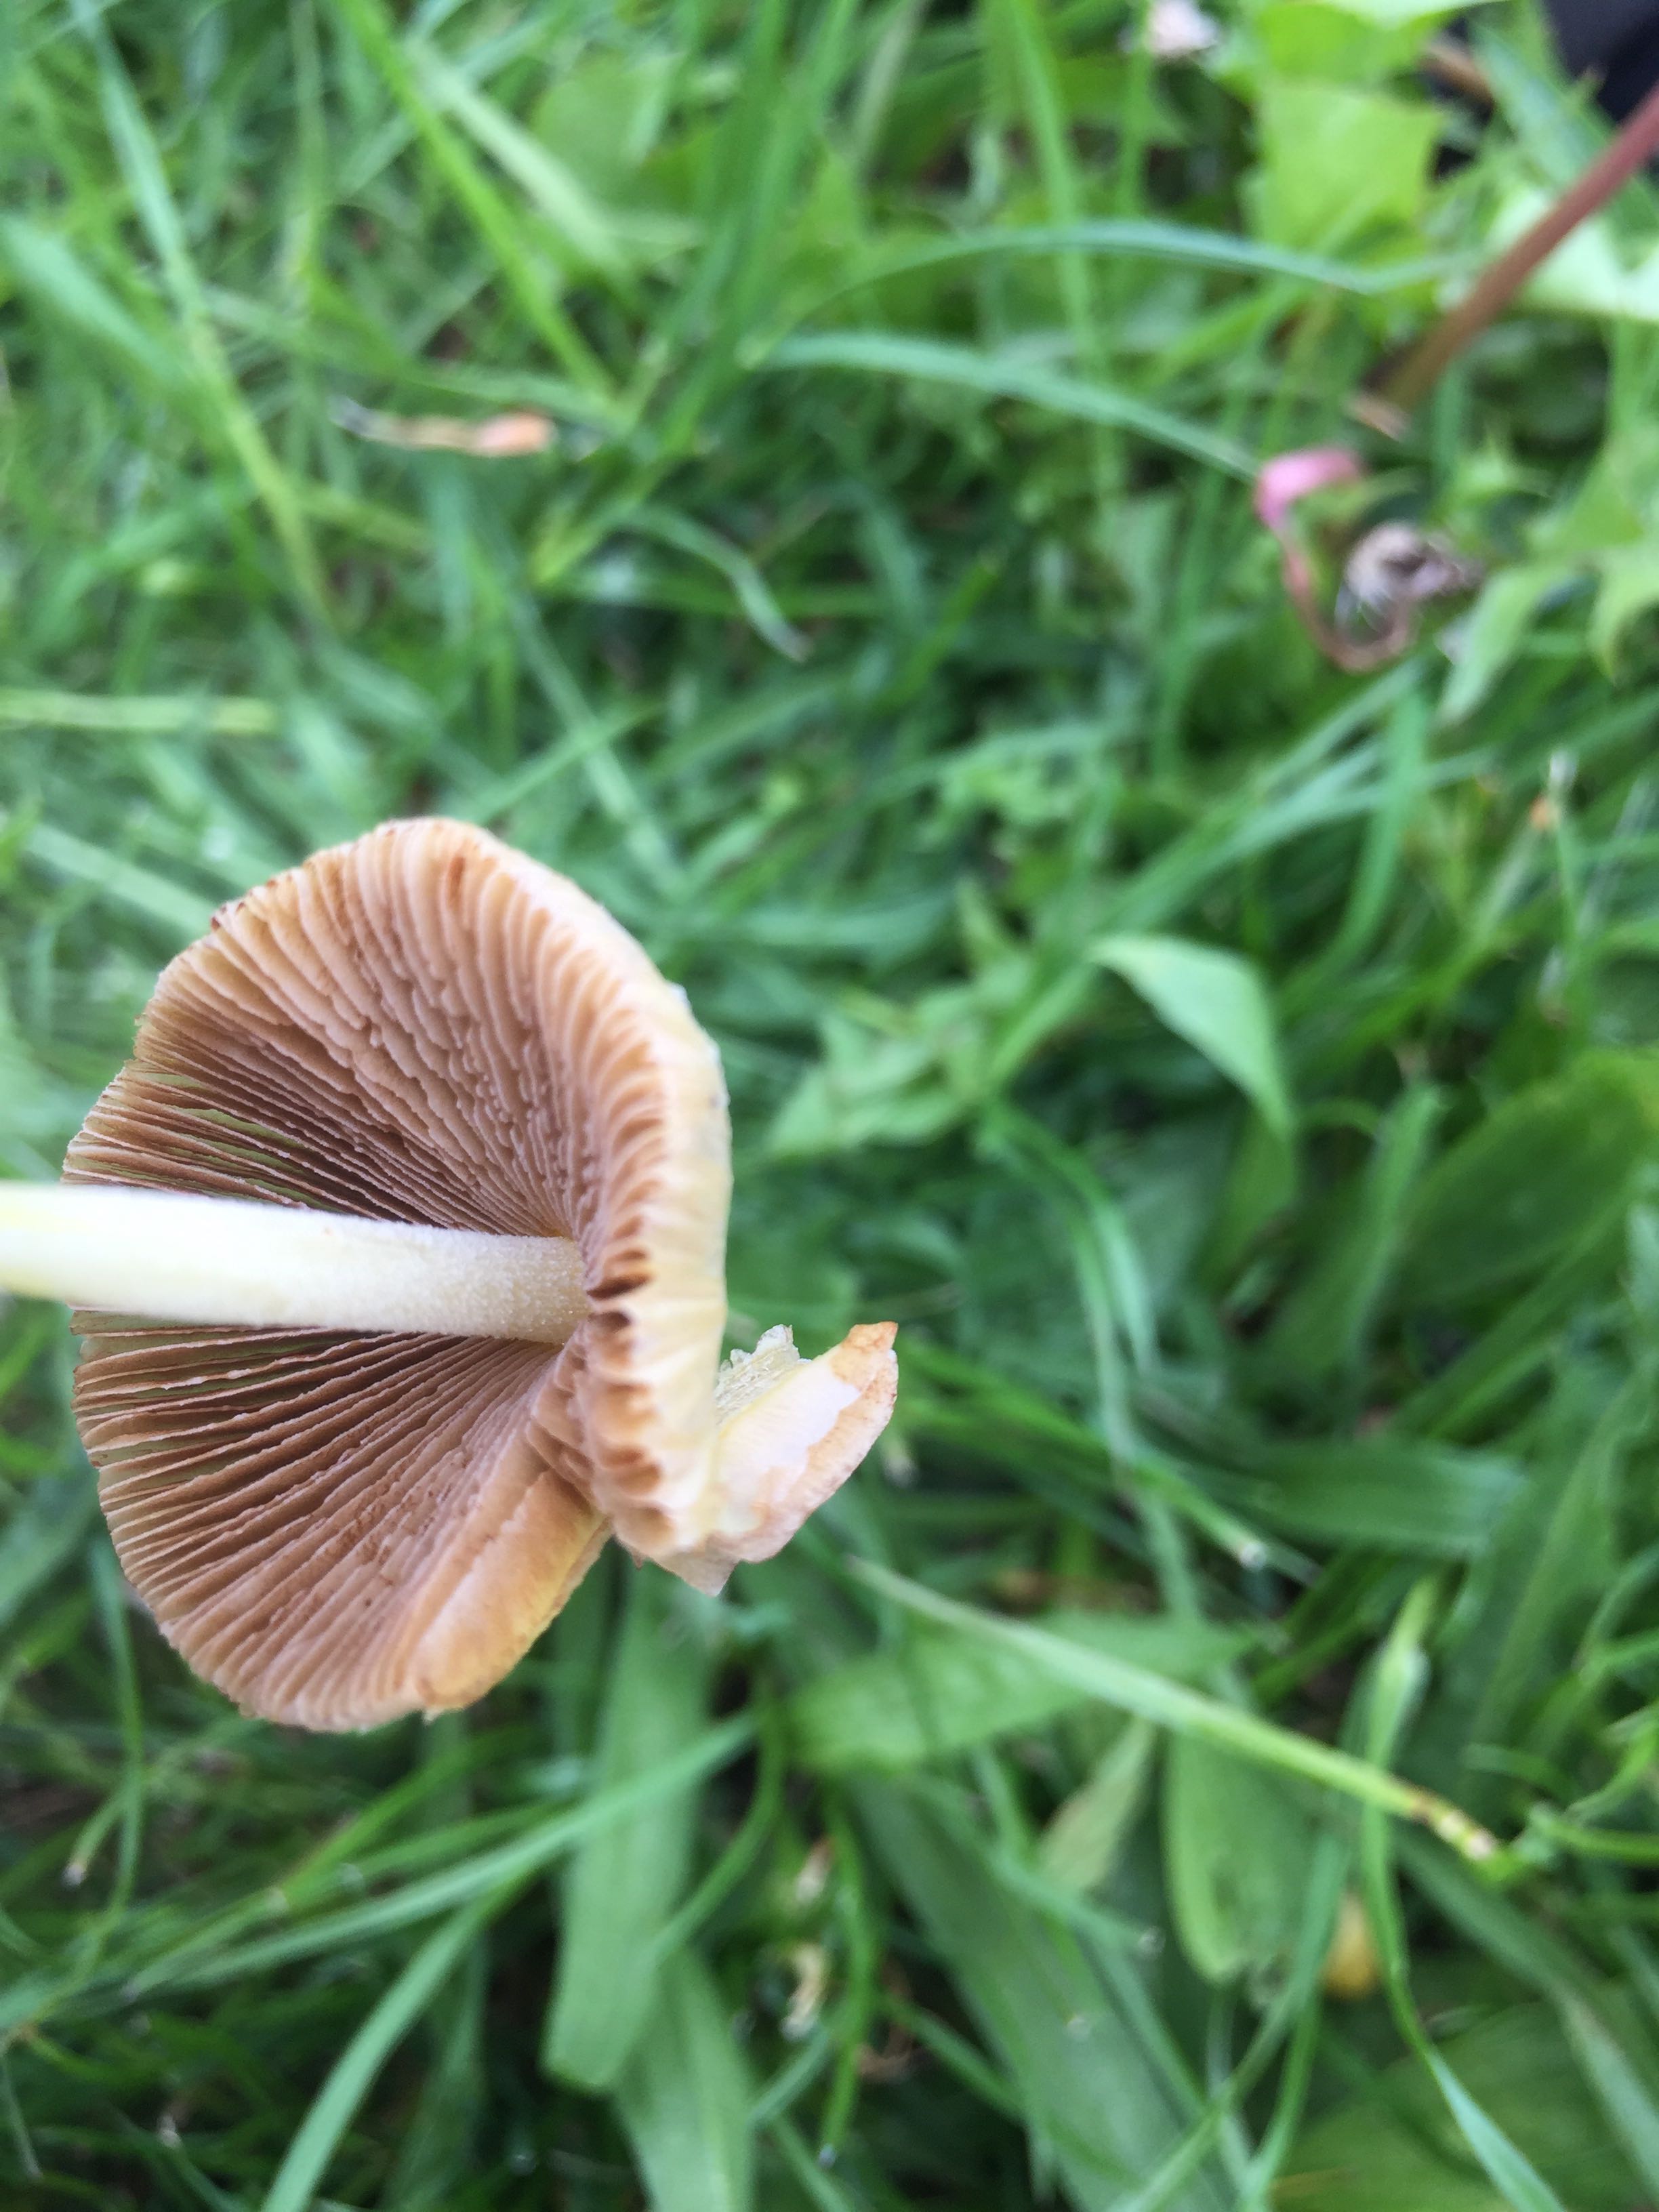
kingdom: Fungi
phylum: Basidiomycota
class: Agaricomycetes
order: Agaricales
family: Bolbitiaceae
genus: Bolbitius
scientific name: Bolbitius titubans
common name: almindelig gulhat
